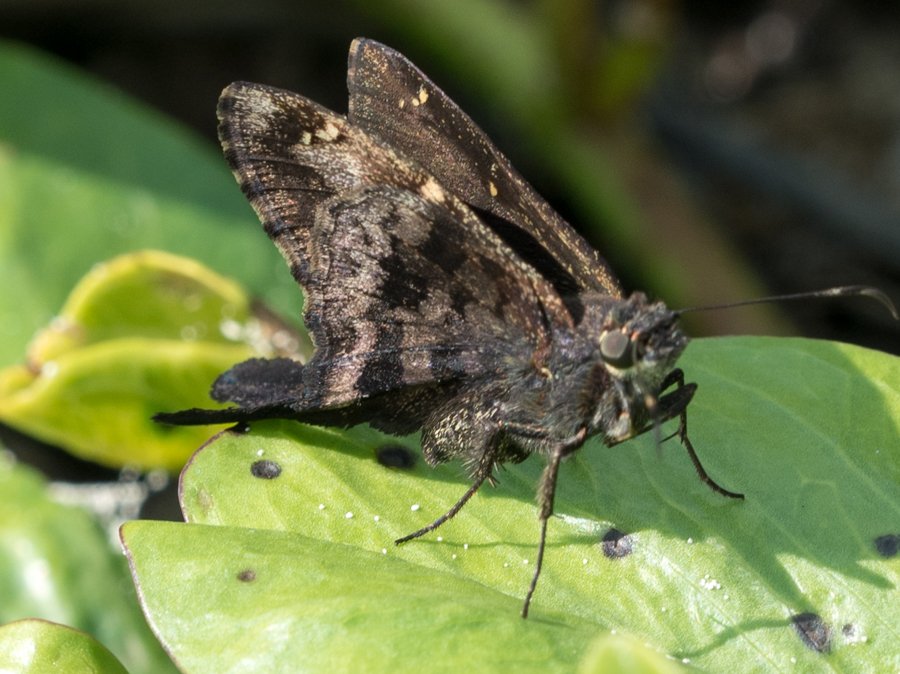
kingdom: Animalia
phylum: Arthropoda
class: Insecta
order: Lepidoptera
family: Hesperiidae
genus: Urbanus
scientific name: Urbanus dorantes
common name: Dorantes Longtail
